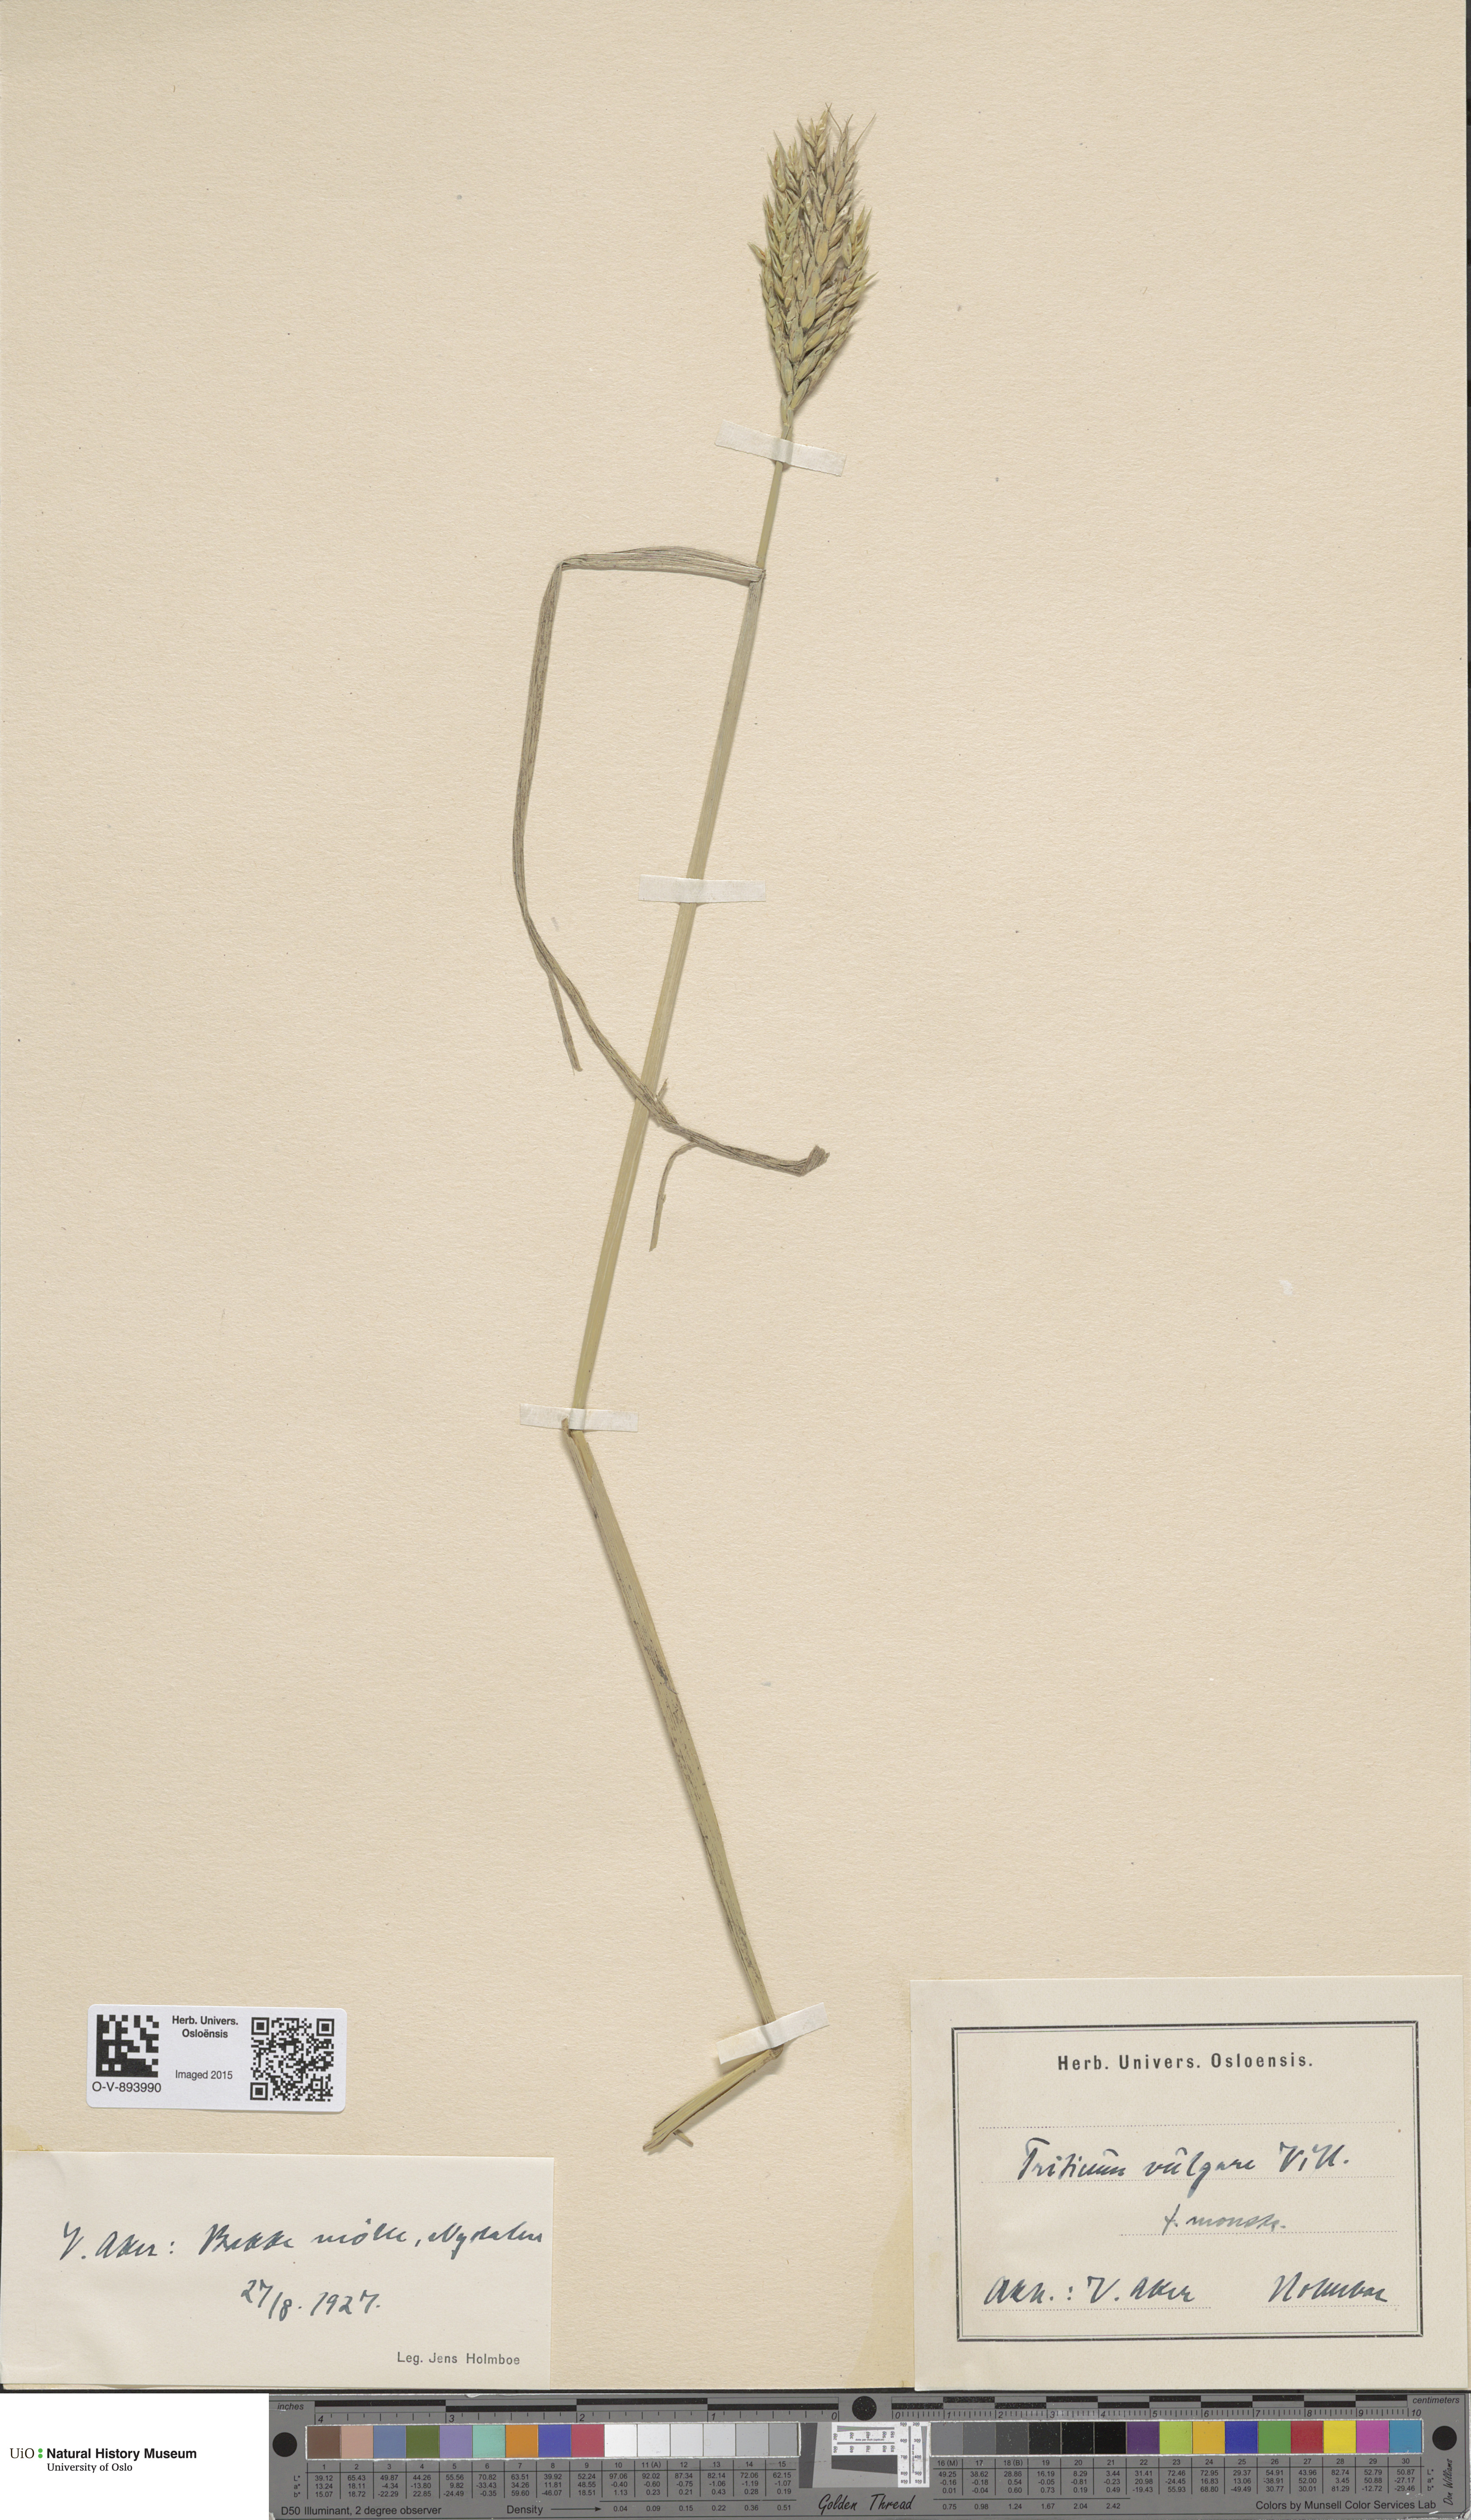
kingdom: Plantae
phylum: Tracheophyta
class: Liliopsida
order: Poales
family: Poaceae
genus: Triticum
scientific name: Triticum aestivum
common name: Common wheat
